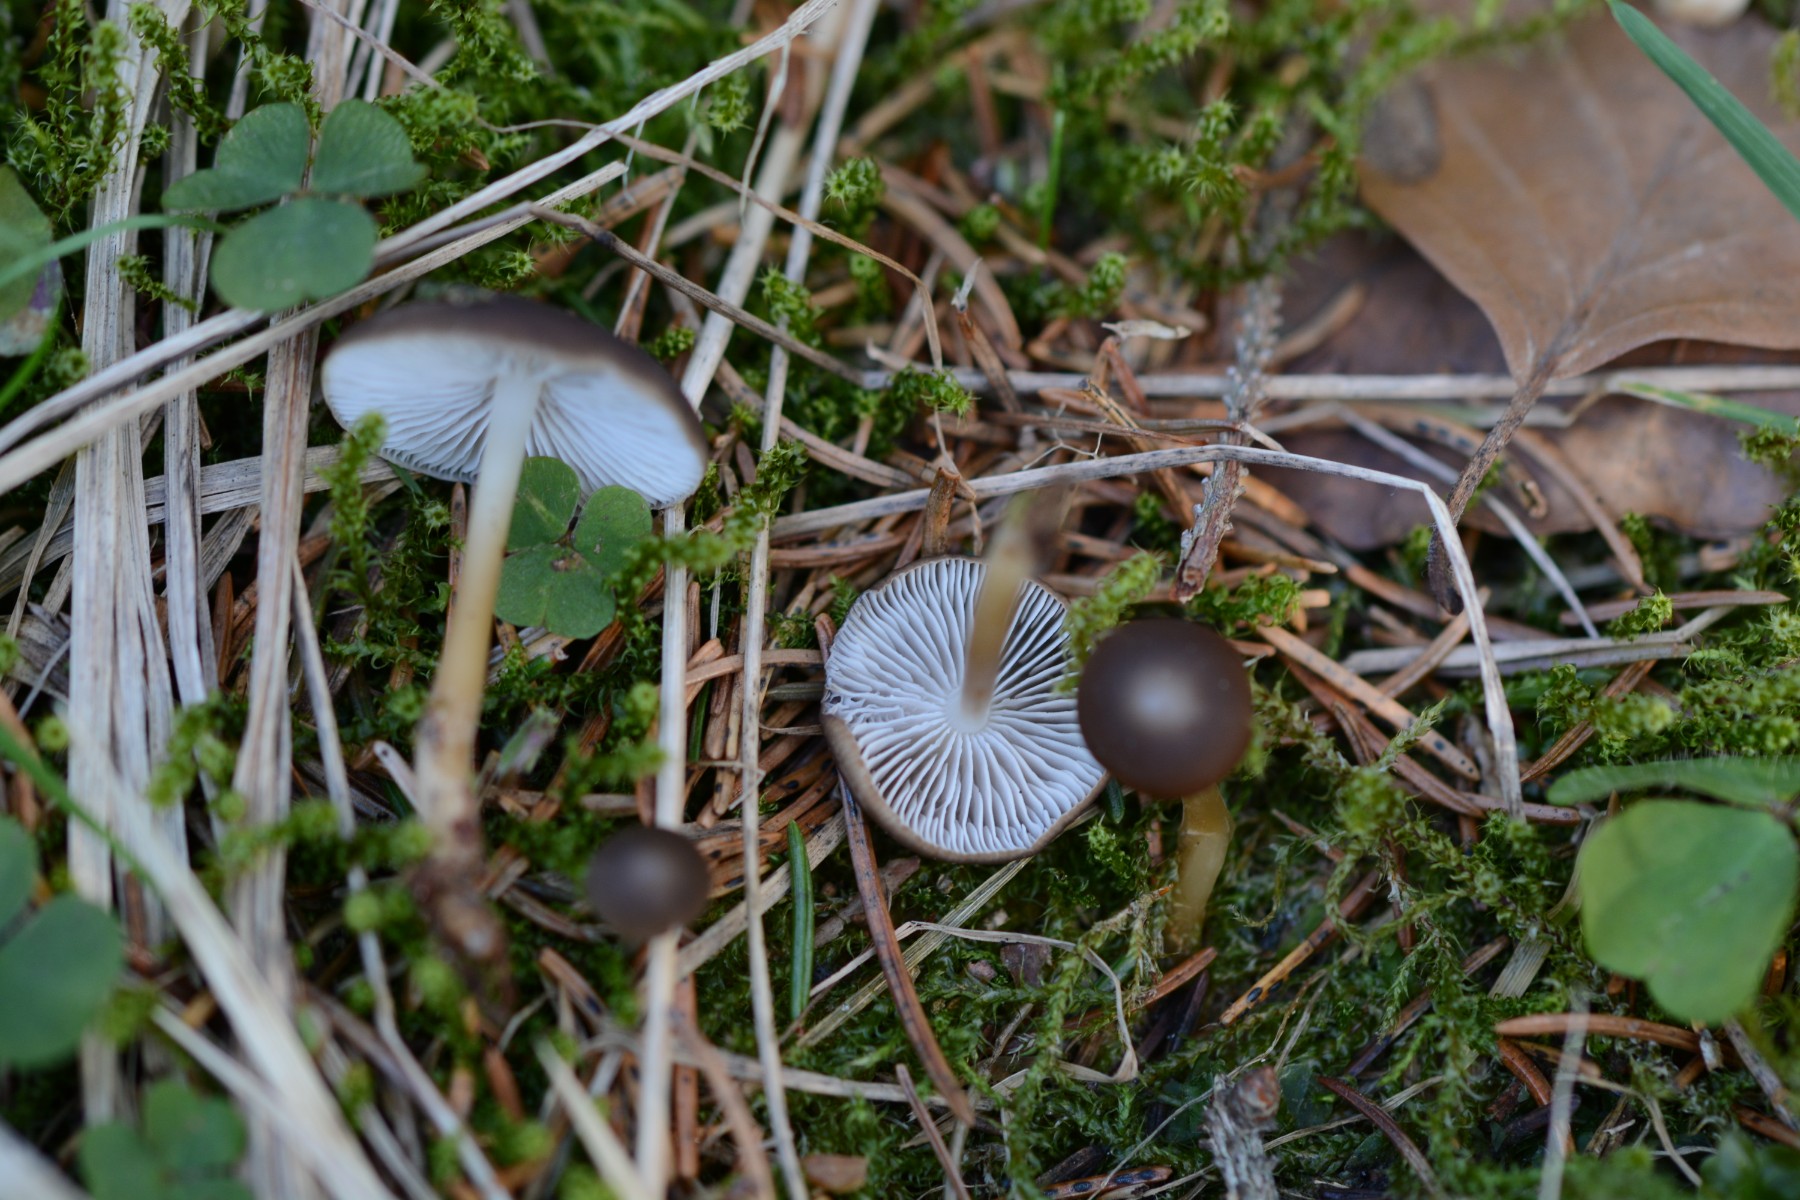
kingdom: Fungi
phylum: Basidiomycota
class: Agaricomycetes
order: Agaricales
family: Physalacriaceae
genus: Strobilurus
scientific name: Strobilurus esculentus
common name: gran-koglehat
